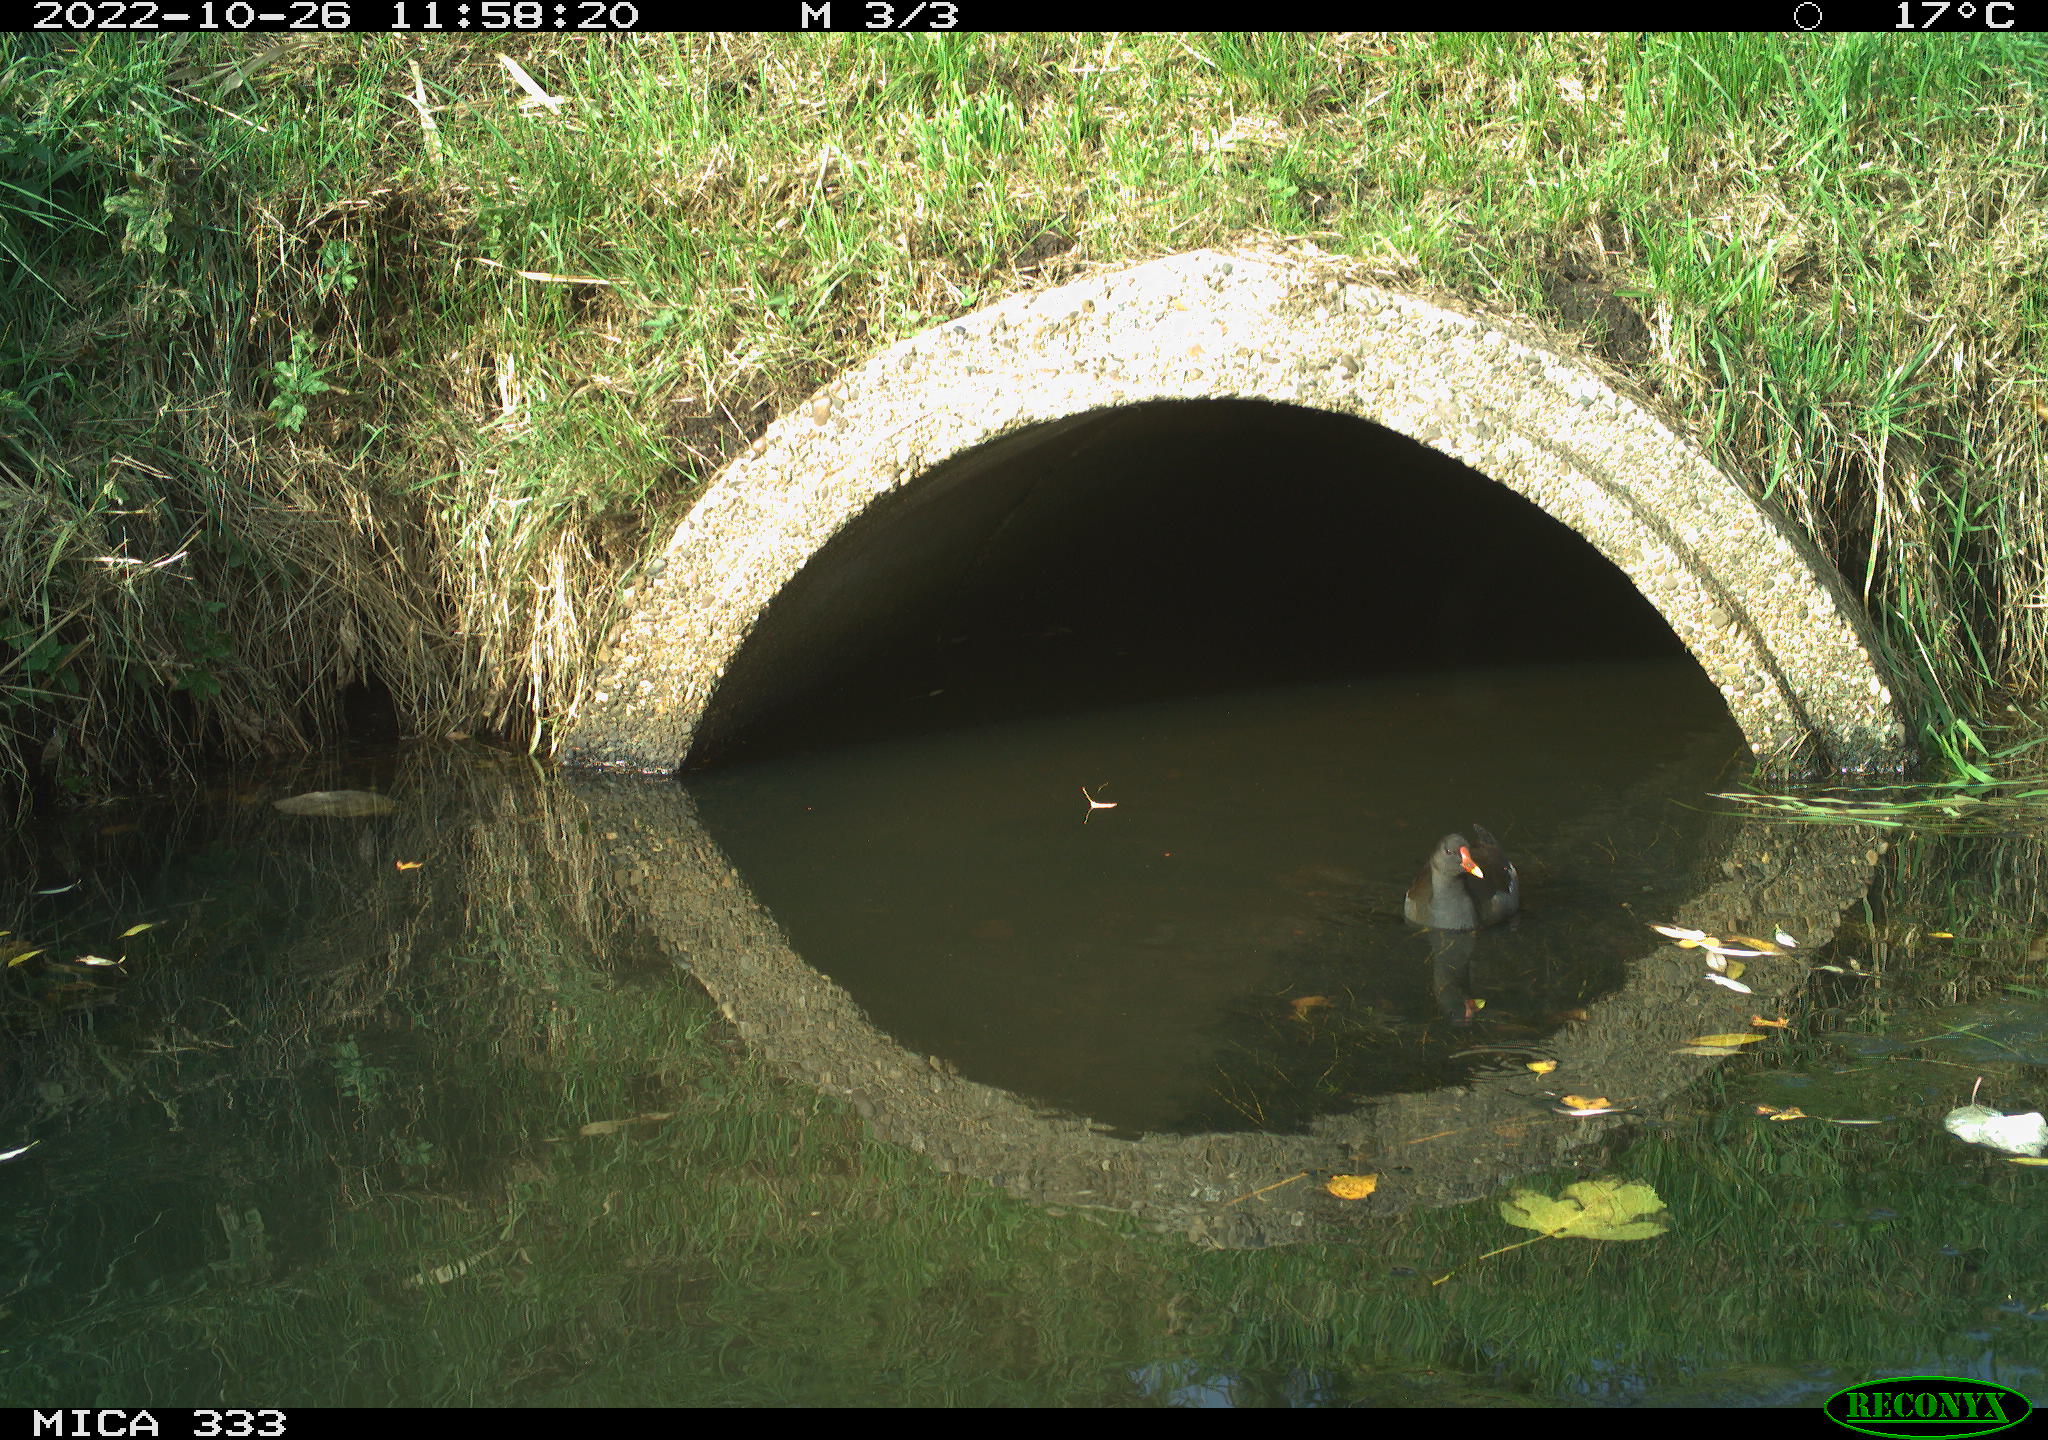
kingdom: Animalia
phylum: Chordata
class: Aves
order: Gruiformes
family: Rallidae
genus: Gallinula
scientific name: Gallinula chloropus
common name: Common moorhen
